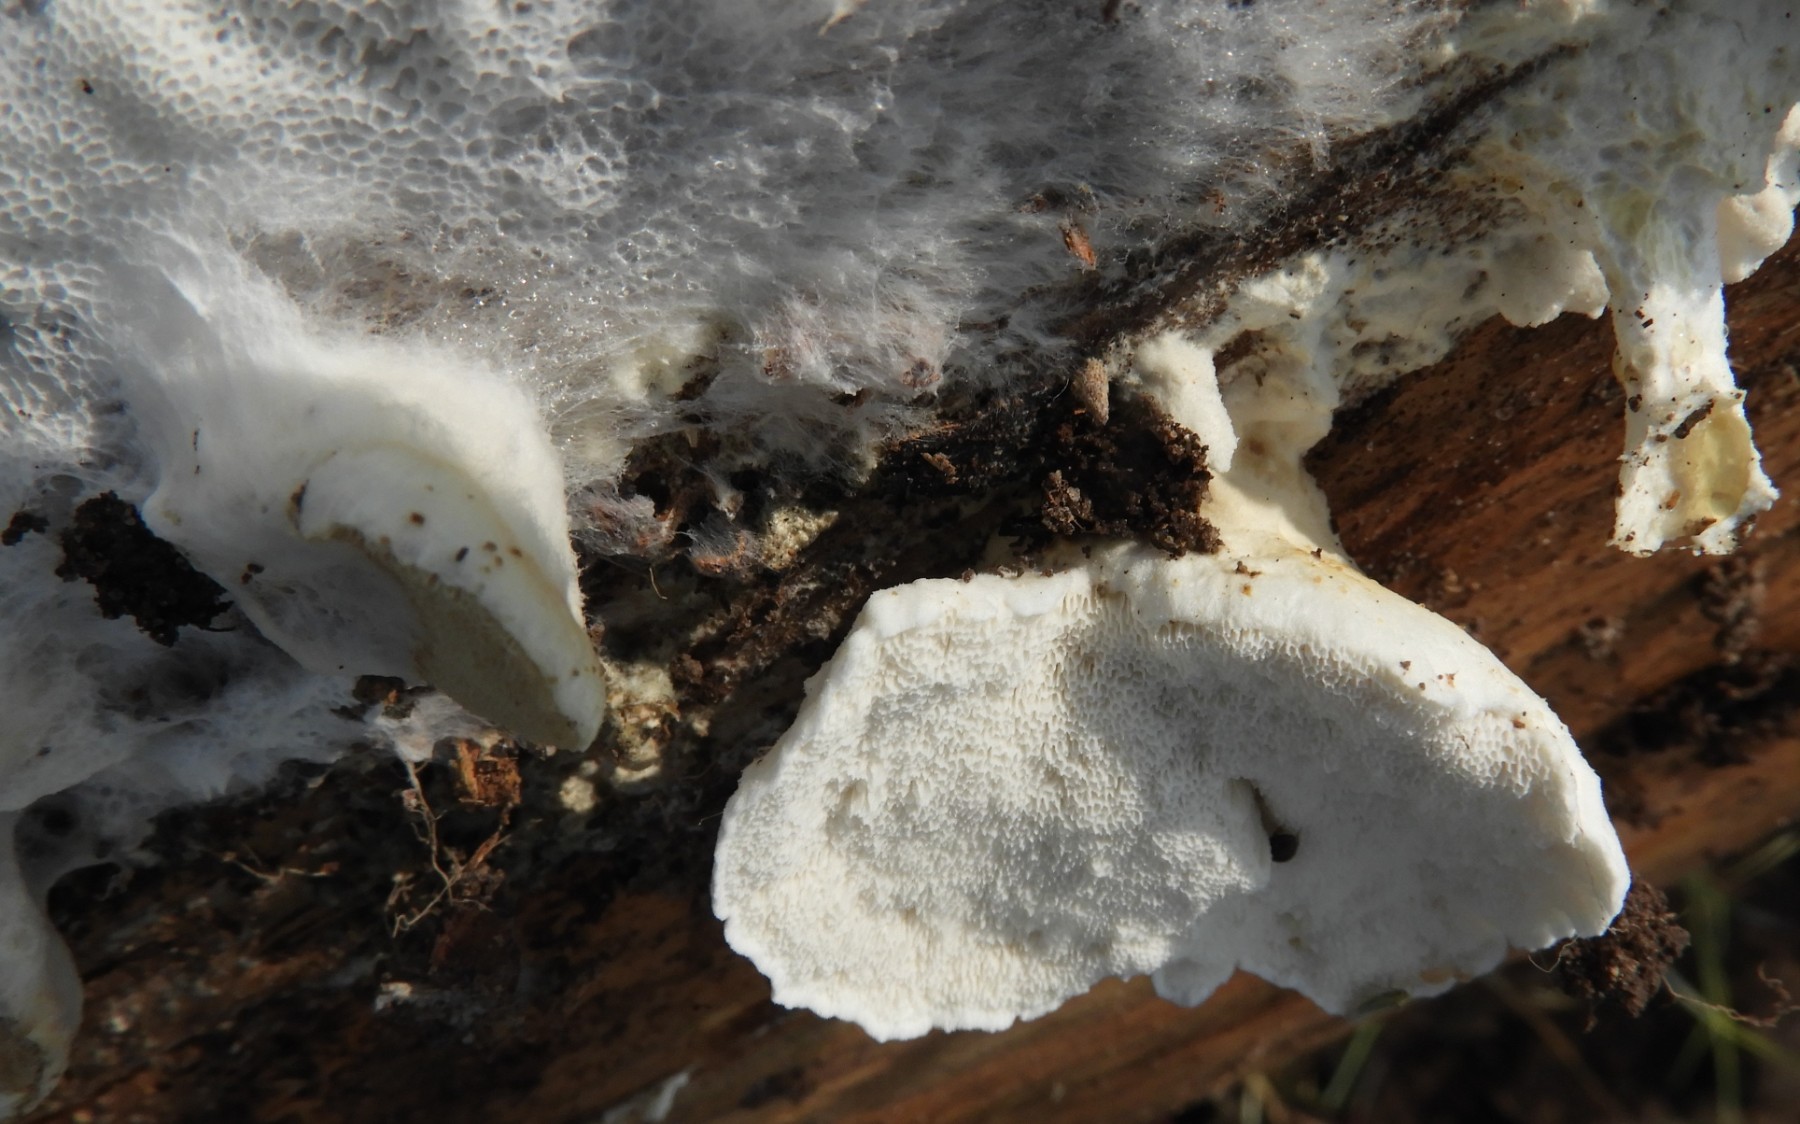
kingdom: Fungi
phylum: Basidiomycota
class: Agaricomycetes
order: Polyporales
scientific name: Polyporales
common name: poresvampordenen
